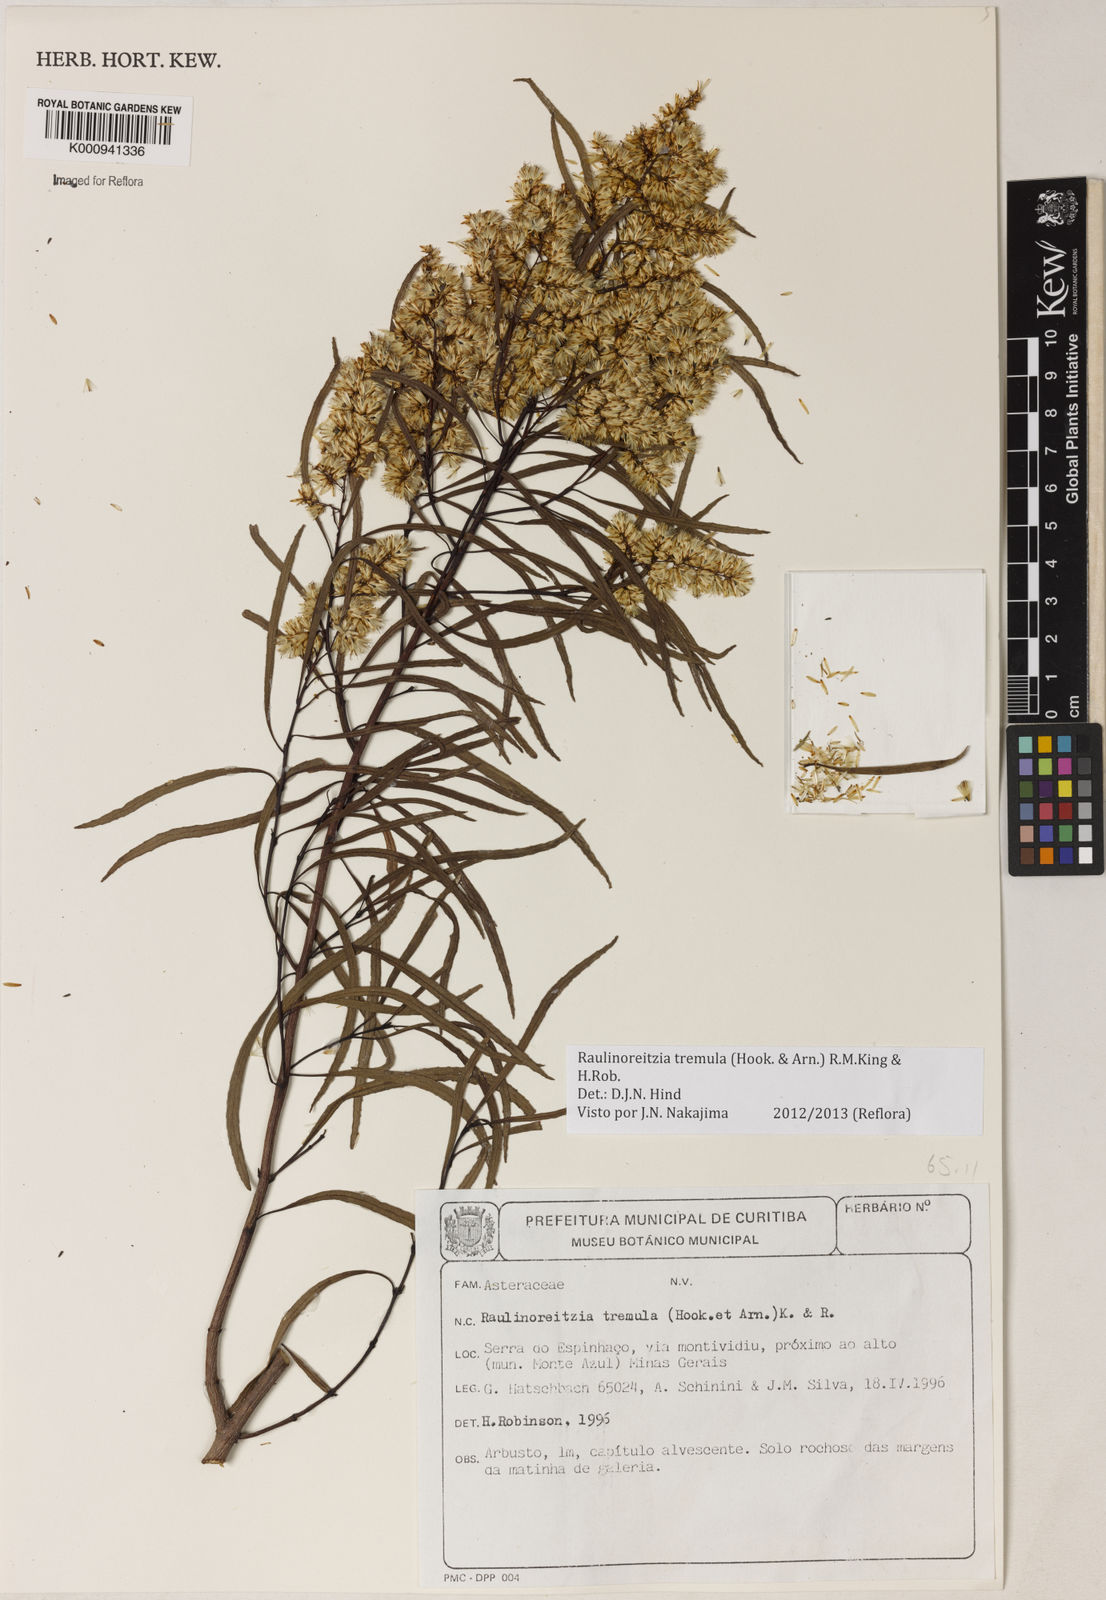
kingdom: Plantae
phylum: Tracheophyta
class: Magnoliopsida
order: Asterales
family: Asteraceae
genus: Raulinoreitzia
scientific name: Raulinoreitzia tremula
